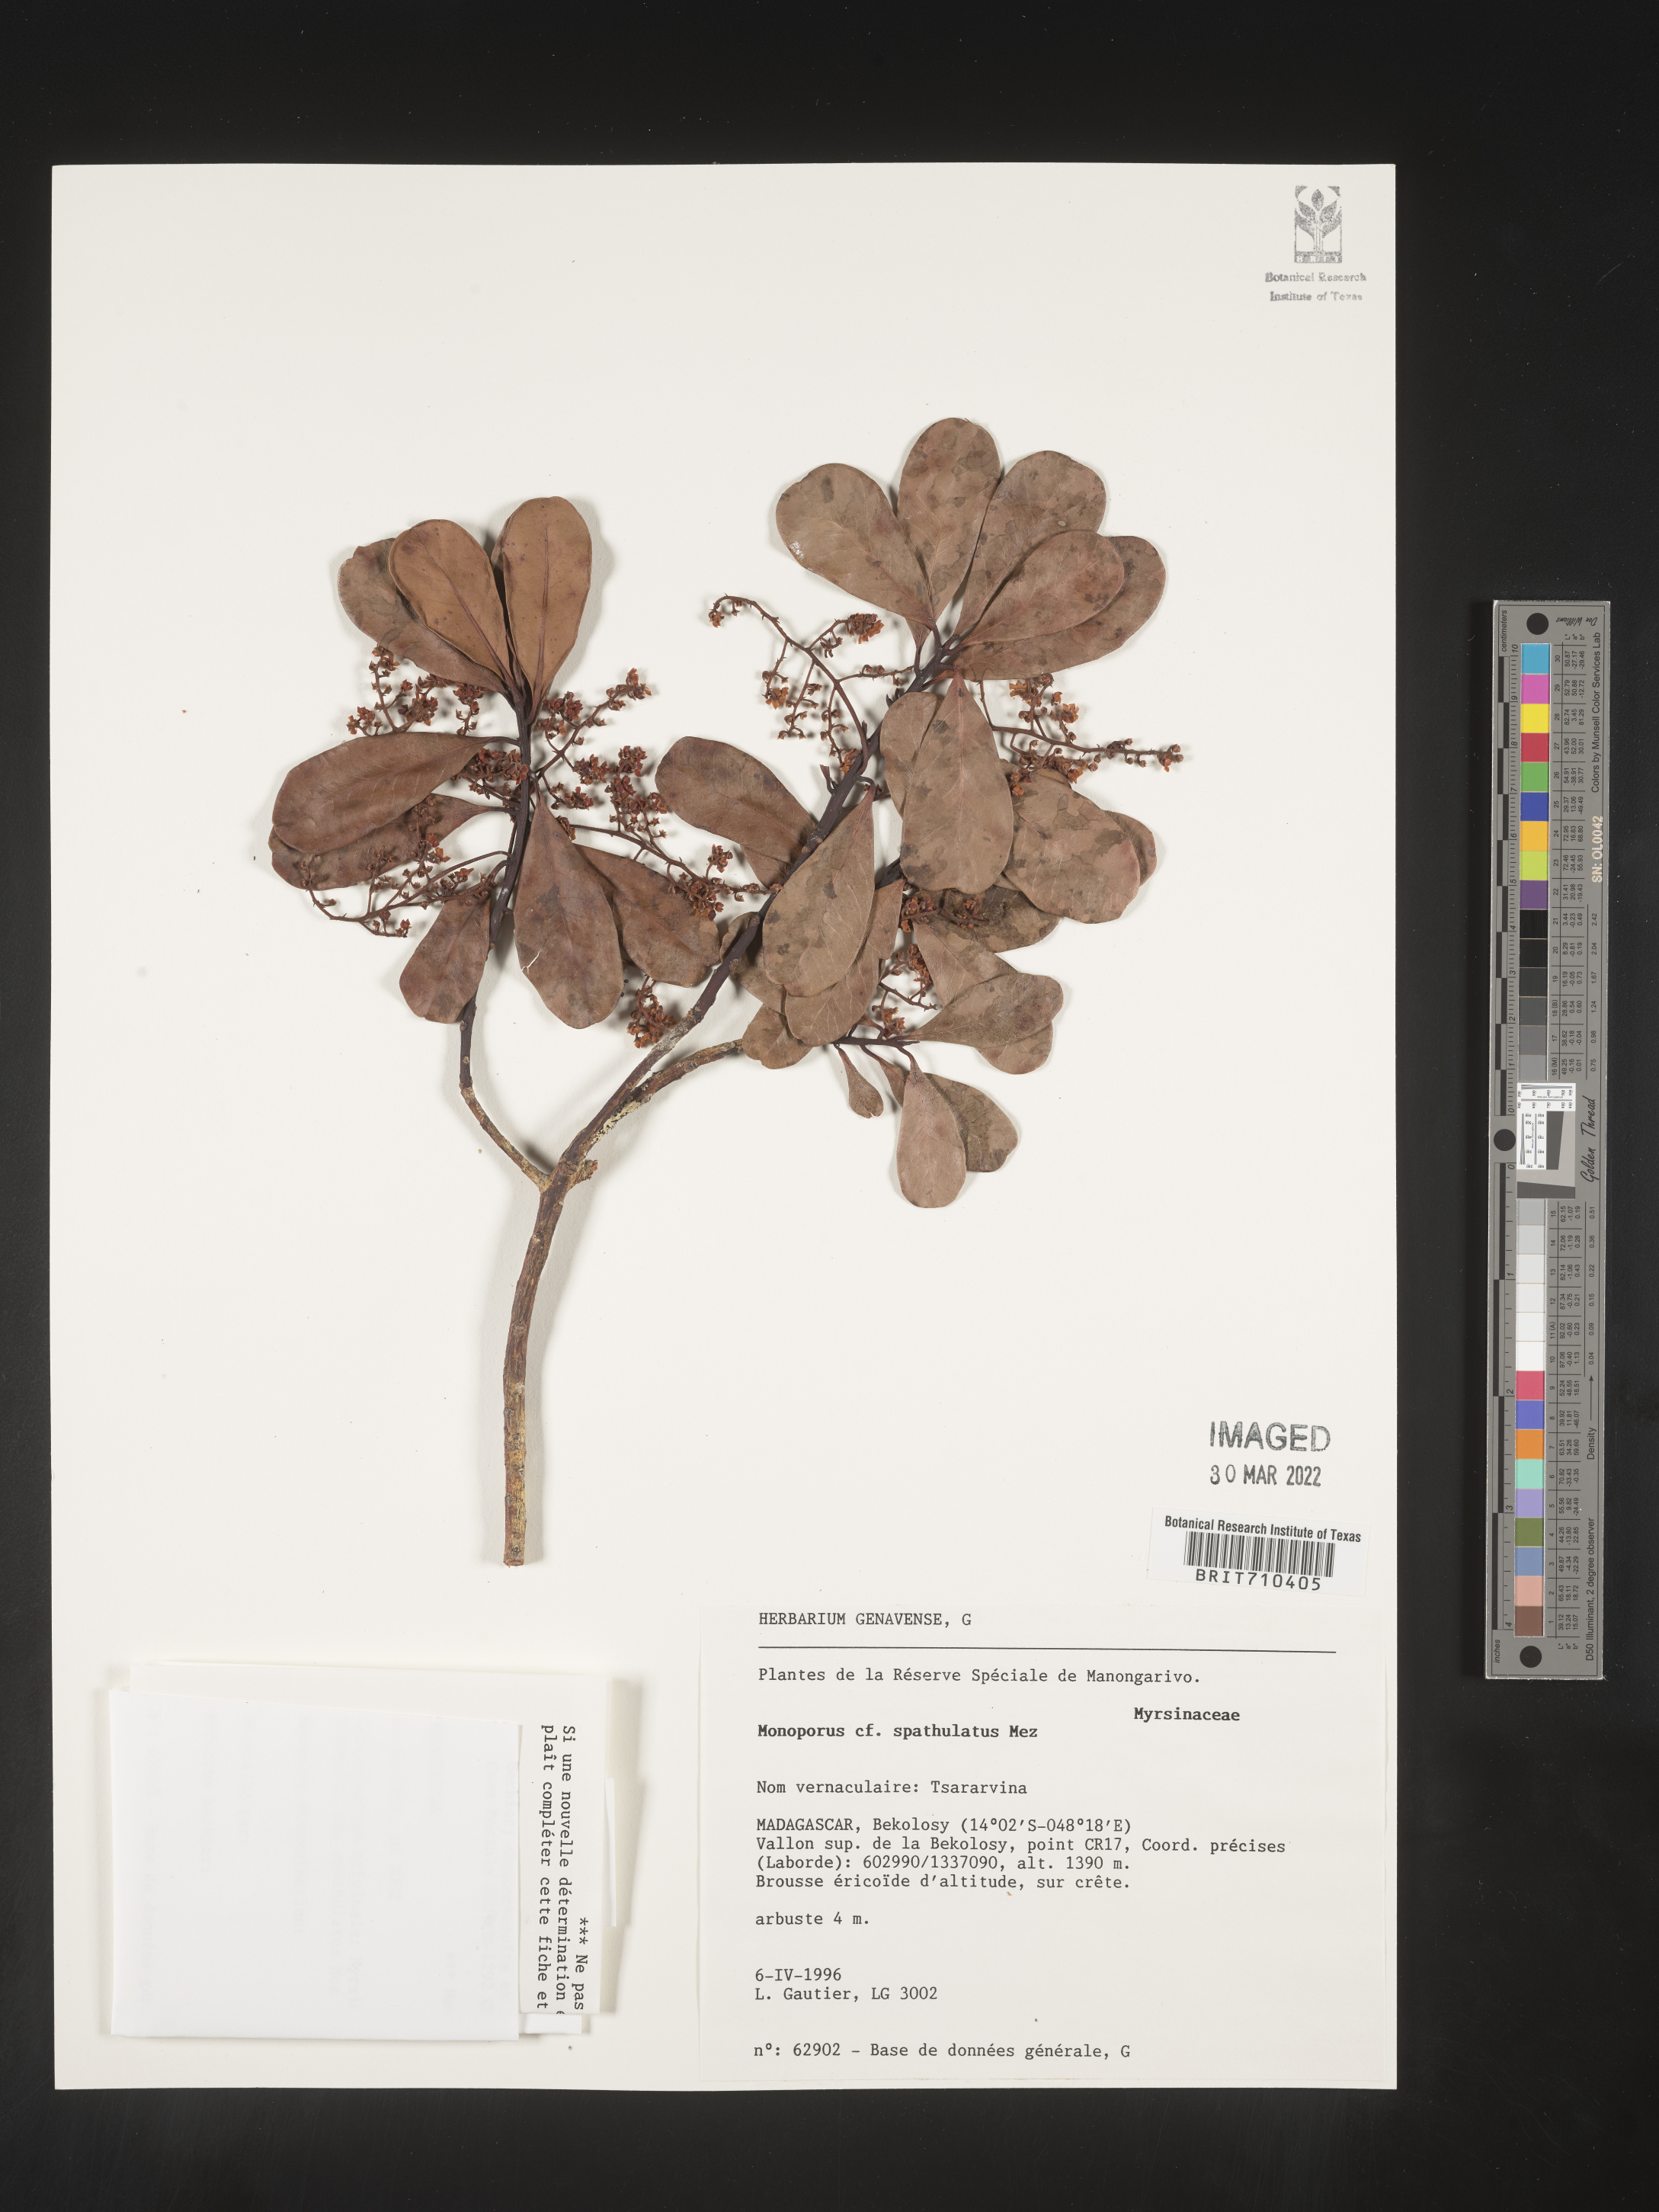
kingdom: Plantae
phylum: Tracheophyta
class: Magnoliopsida
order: Ericales
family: Primulaceae
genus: Monoporus
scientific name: Monoporus
